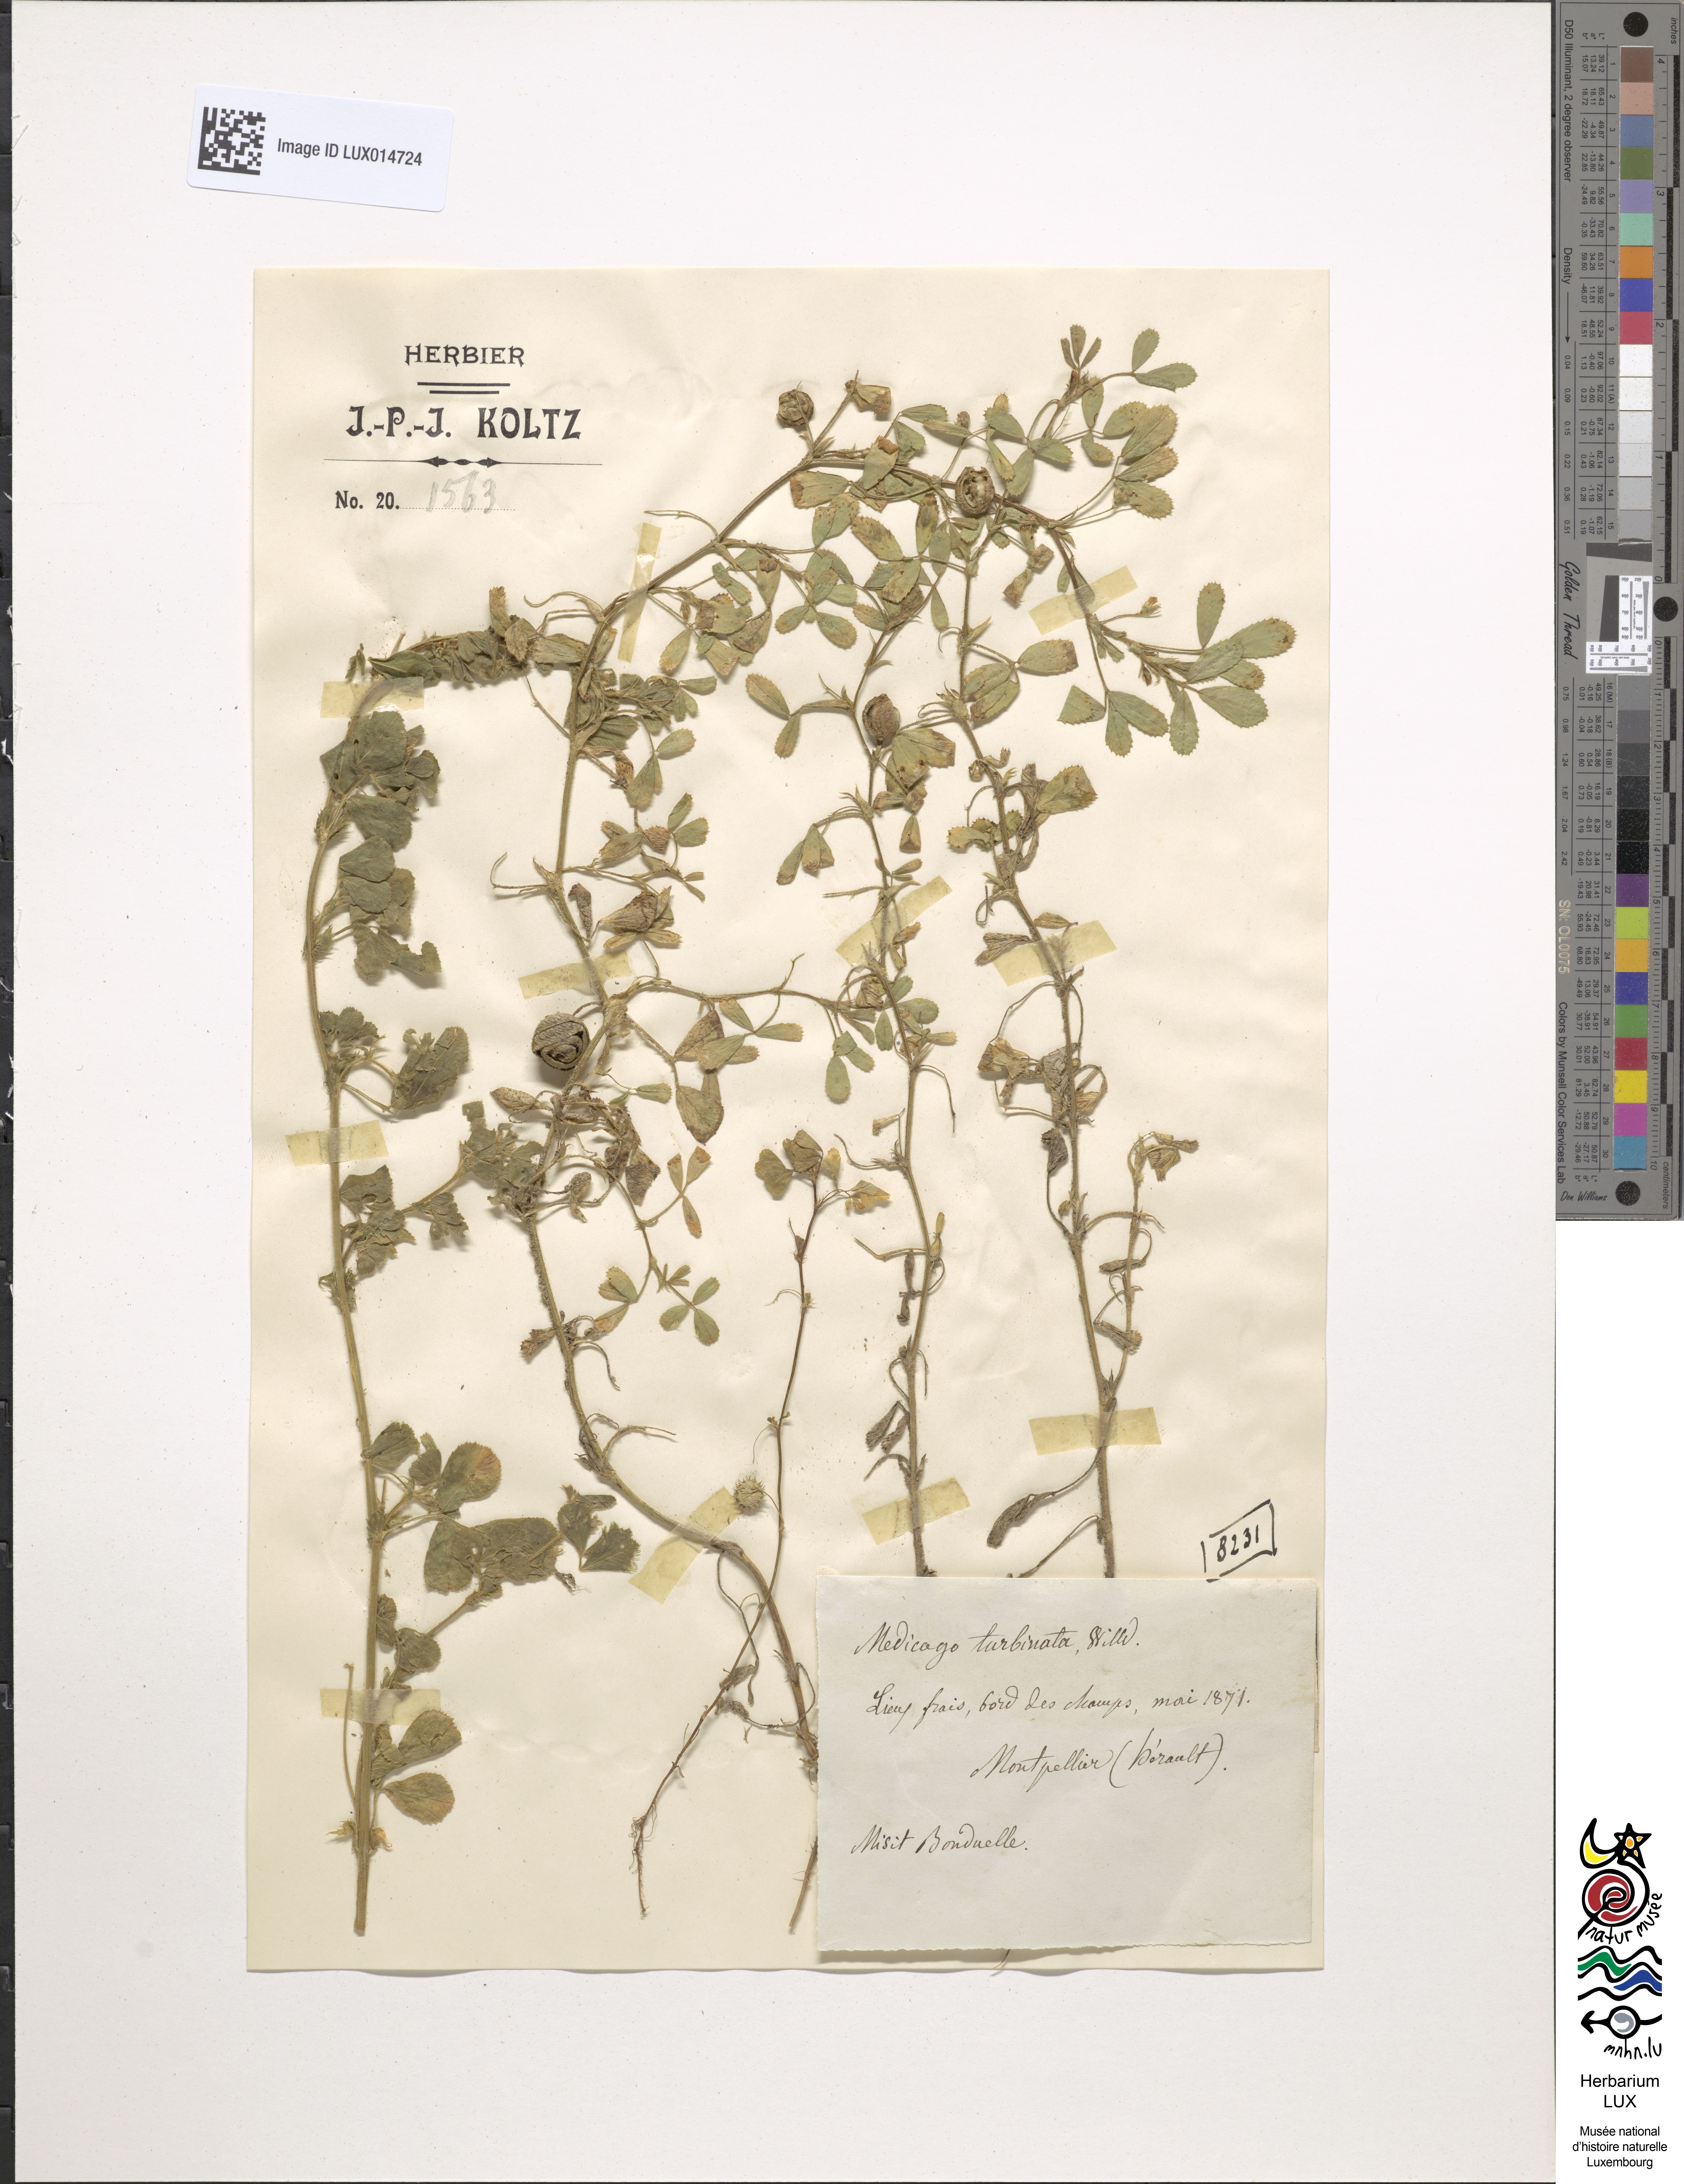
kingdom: Plantae
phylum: Tracheophyta
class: Magnoliopsida
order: Fabales
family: Fabaceae
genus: Medicago
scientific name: Medicago polymorpha
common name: Burclover
